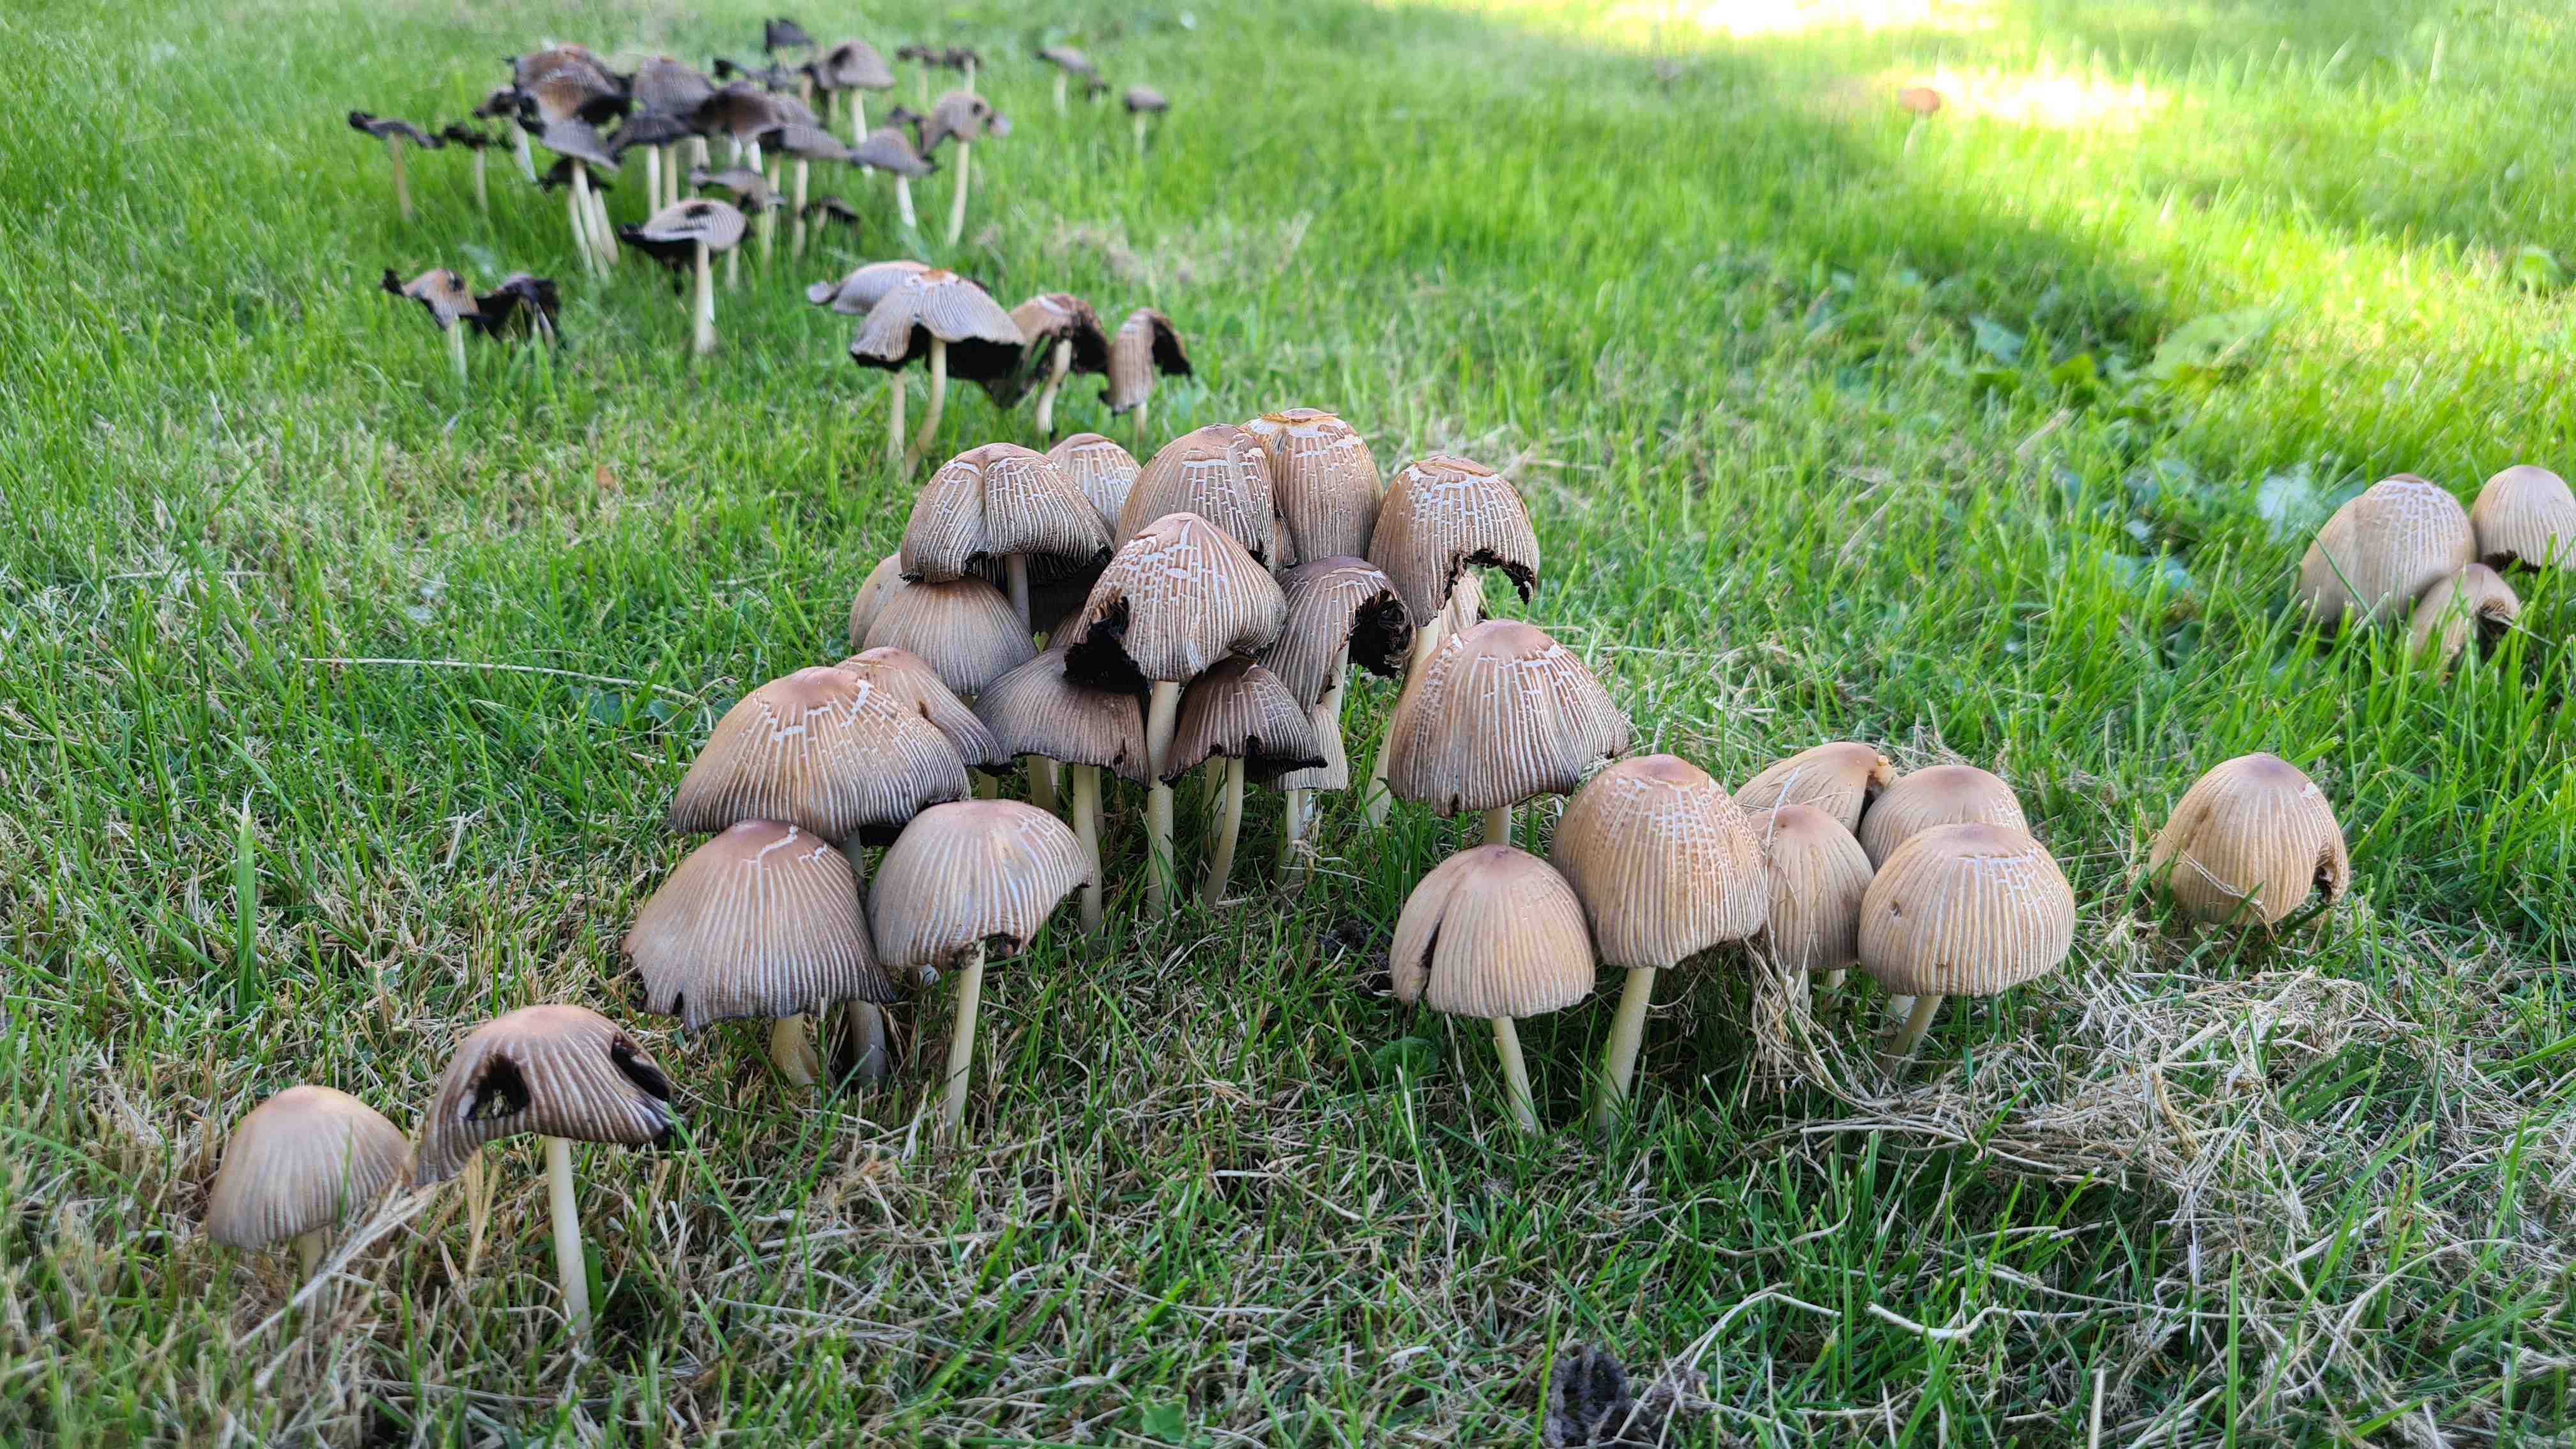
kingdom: Fungi
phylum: Basidiomycota
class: Agaricomycetes
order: Agaricales
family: Psathyrellaceae
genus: Coprinellus
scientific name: Coprinellus
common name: blækhat
